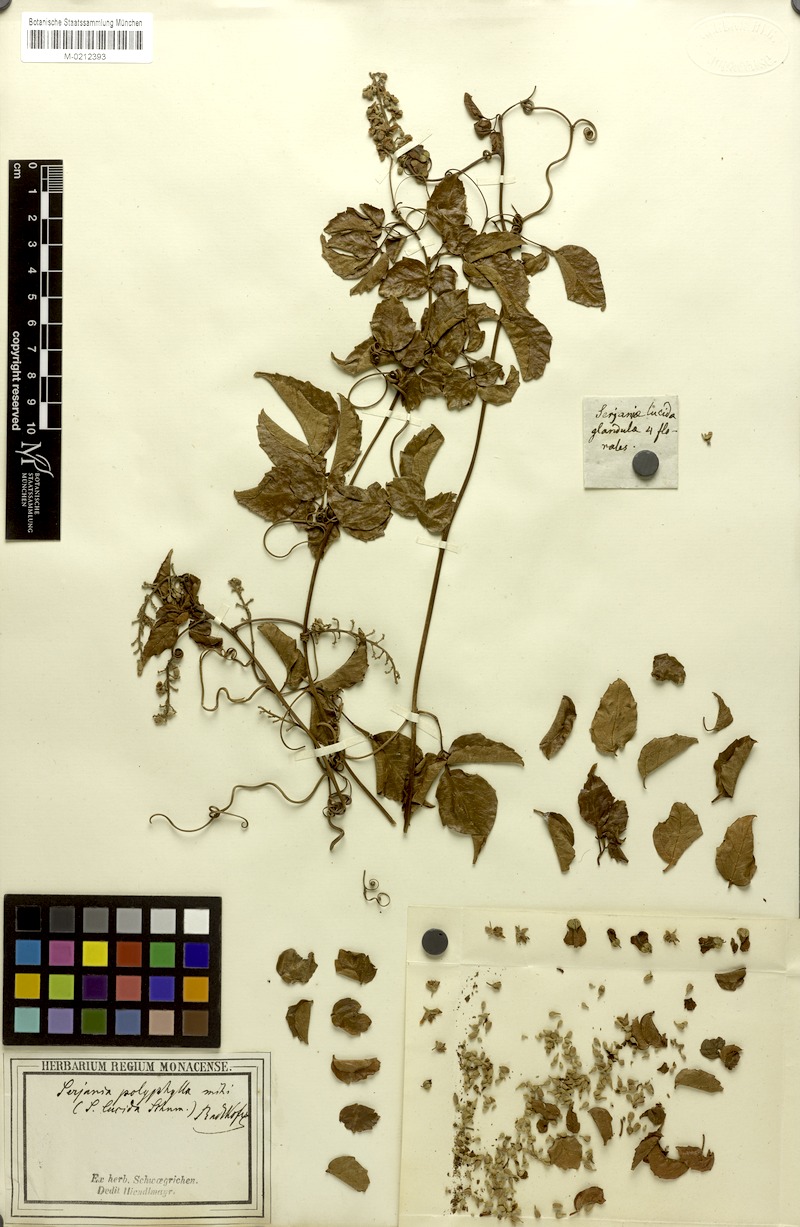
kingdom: Plantae
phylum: Tracheophyta
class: Magnoliopsida
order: Sapindales
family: Sapindaceae
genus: Serjania
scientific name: Serjania polyphylla
